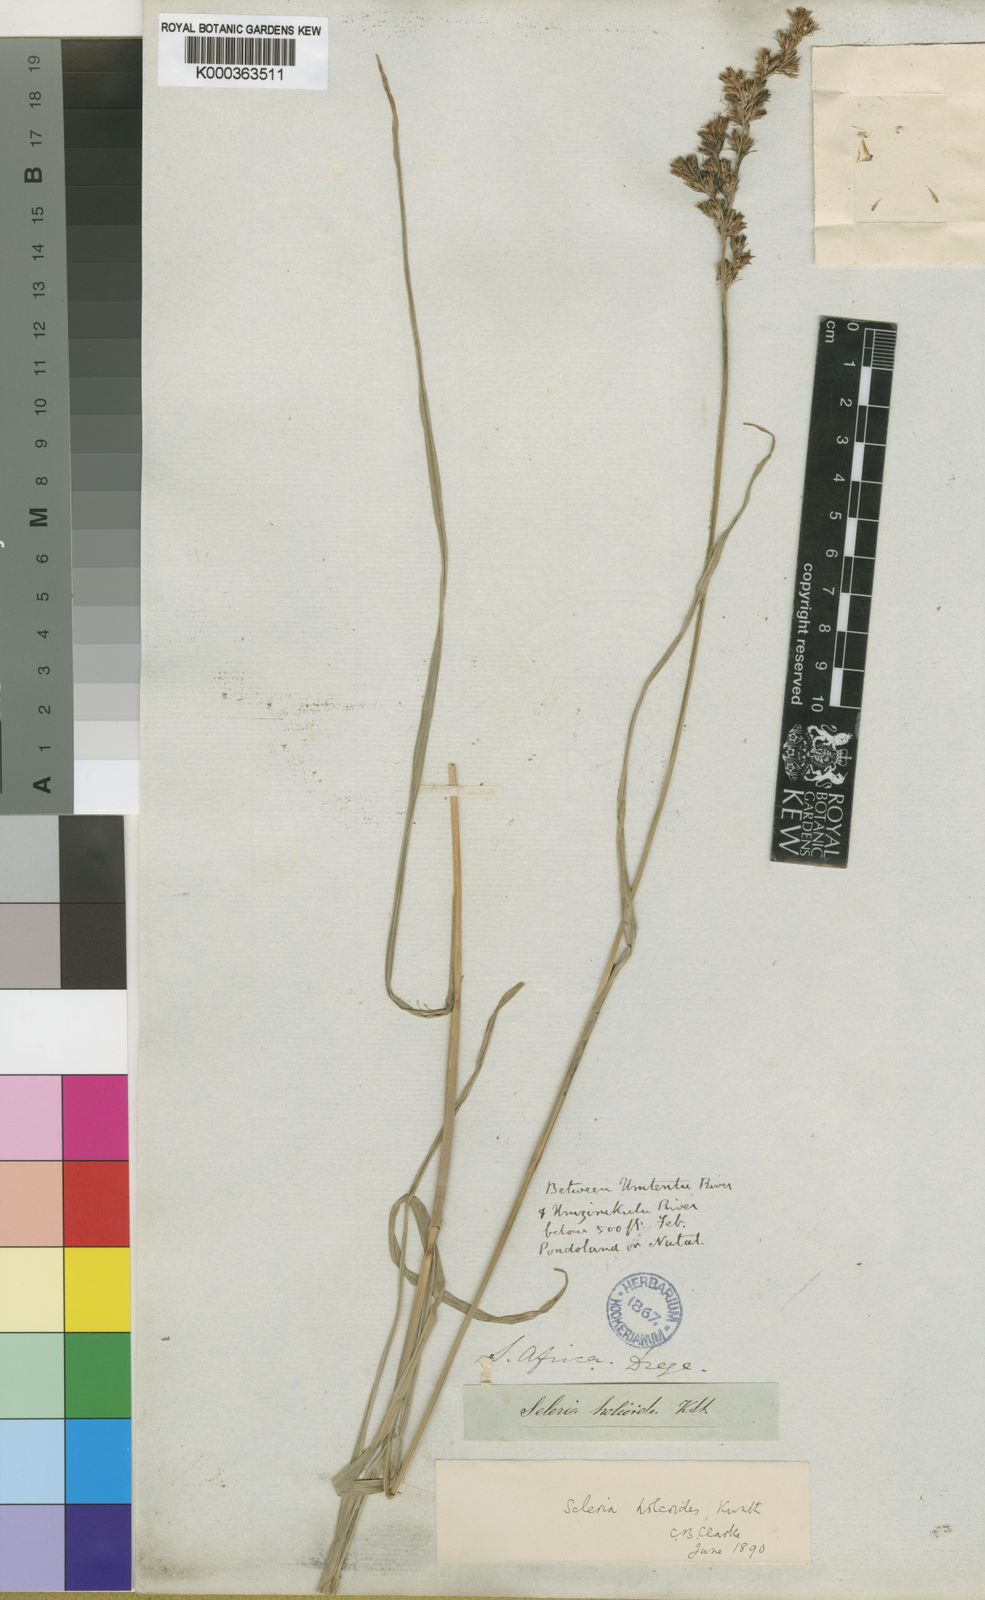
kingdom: Plantae
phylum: Tracheophyta
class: Liliopsida
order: Poales
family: Cyperaceae
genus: Scleria
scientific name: Scleria dregeana
